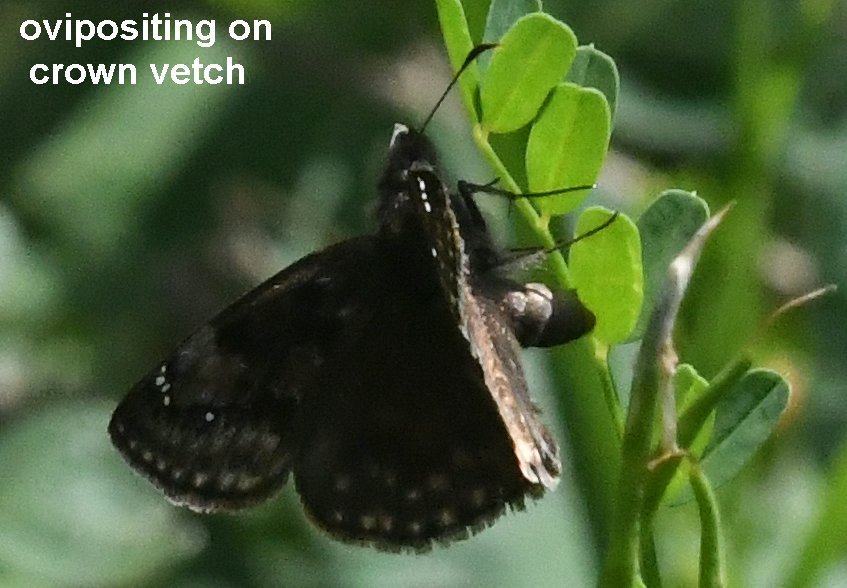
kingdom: Animalia
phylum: Arthropoda
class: Insecta
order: Lepidoptera
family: Hesperiidae
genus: Gesta
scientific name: Gesta
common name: Wild Indigo Duskywing
